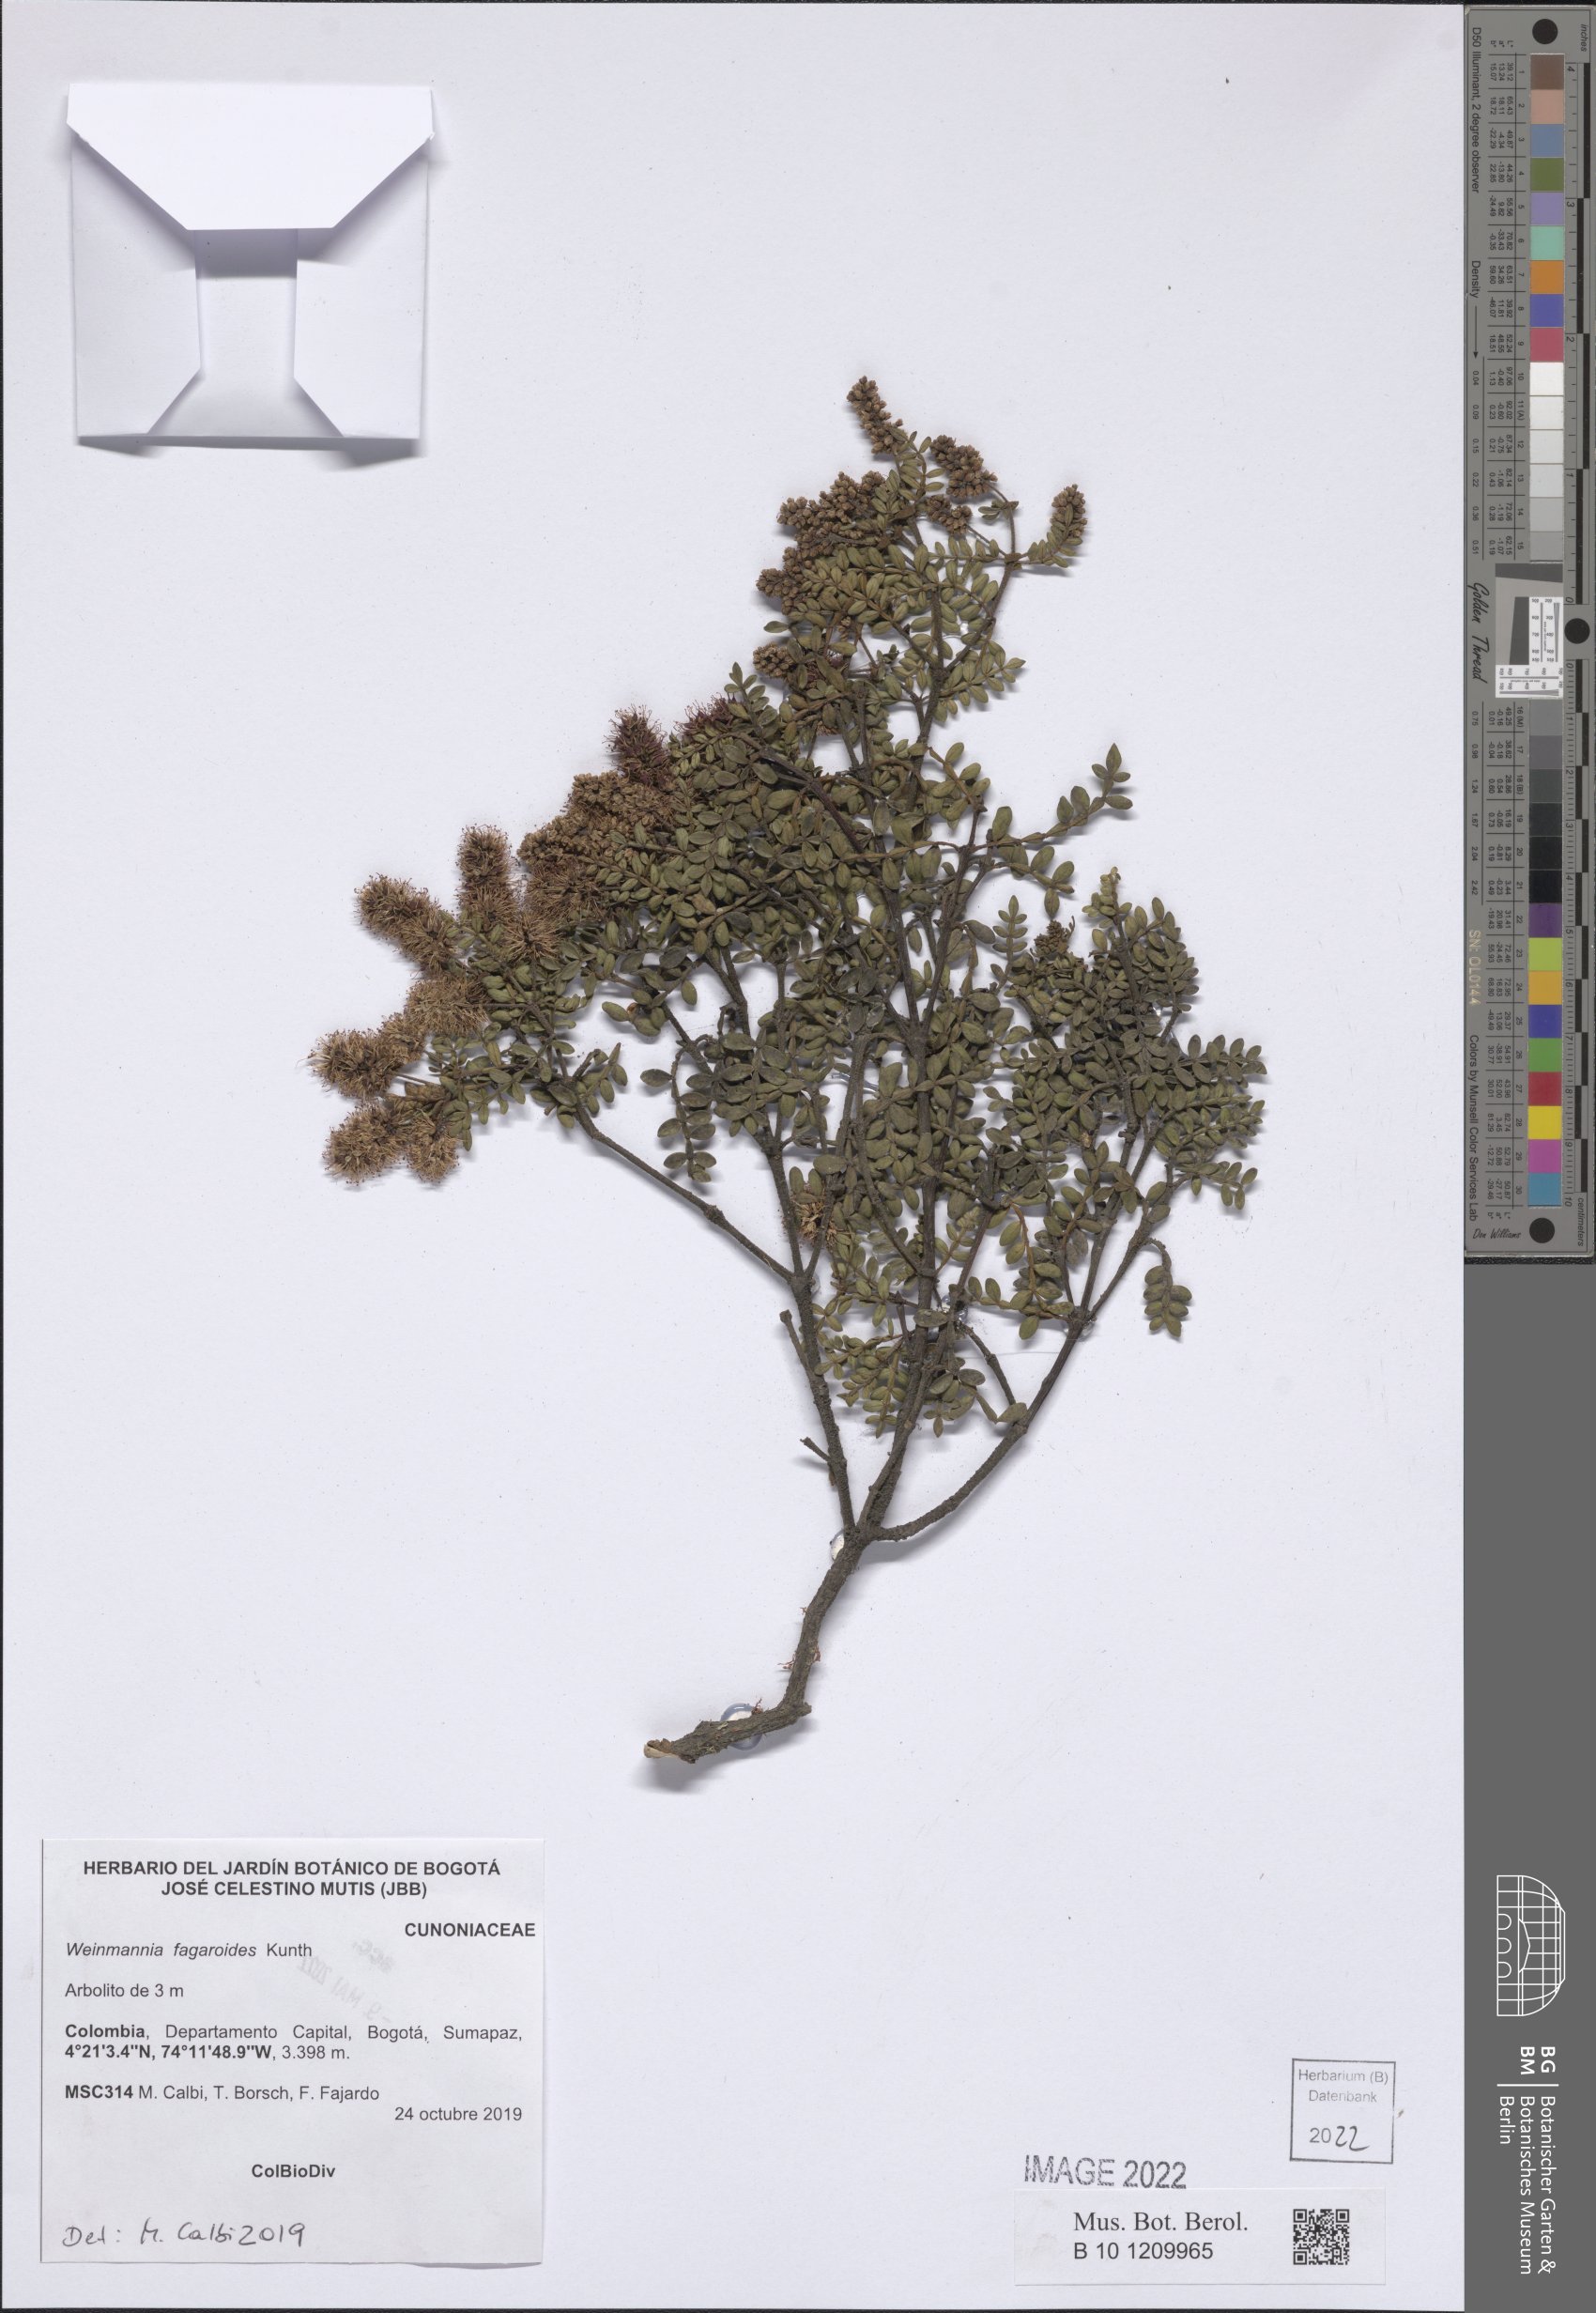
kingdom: Plantae
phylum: Tracheophyta
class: Magnoliopsida
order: Oxalidales
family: Cunoniaceae
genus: Weinmannia
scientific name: Weinmannia fagaroides
